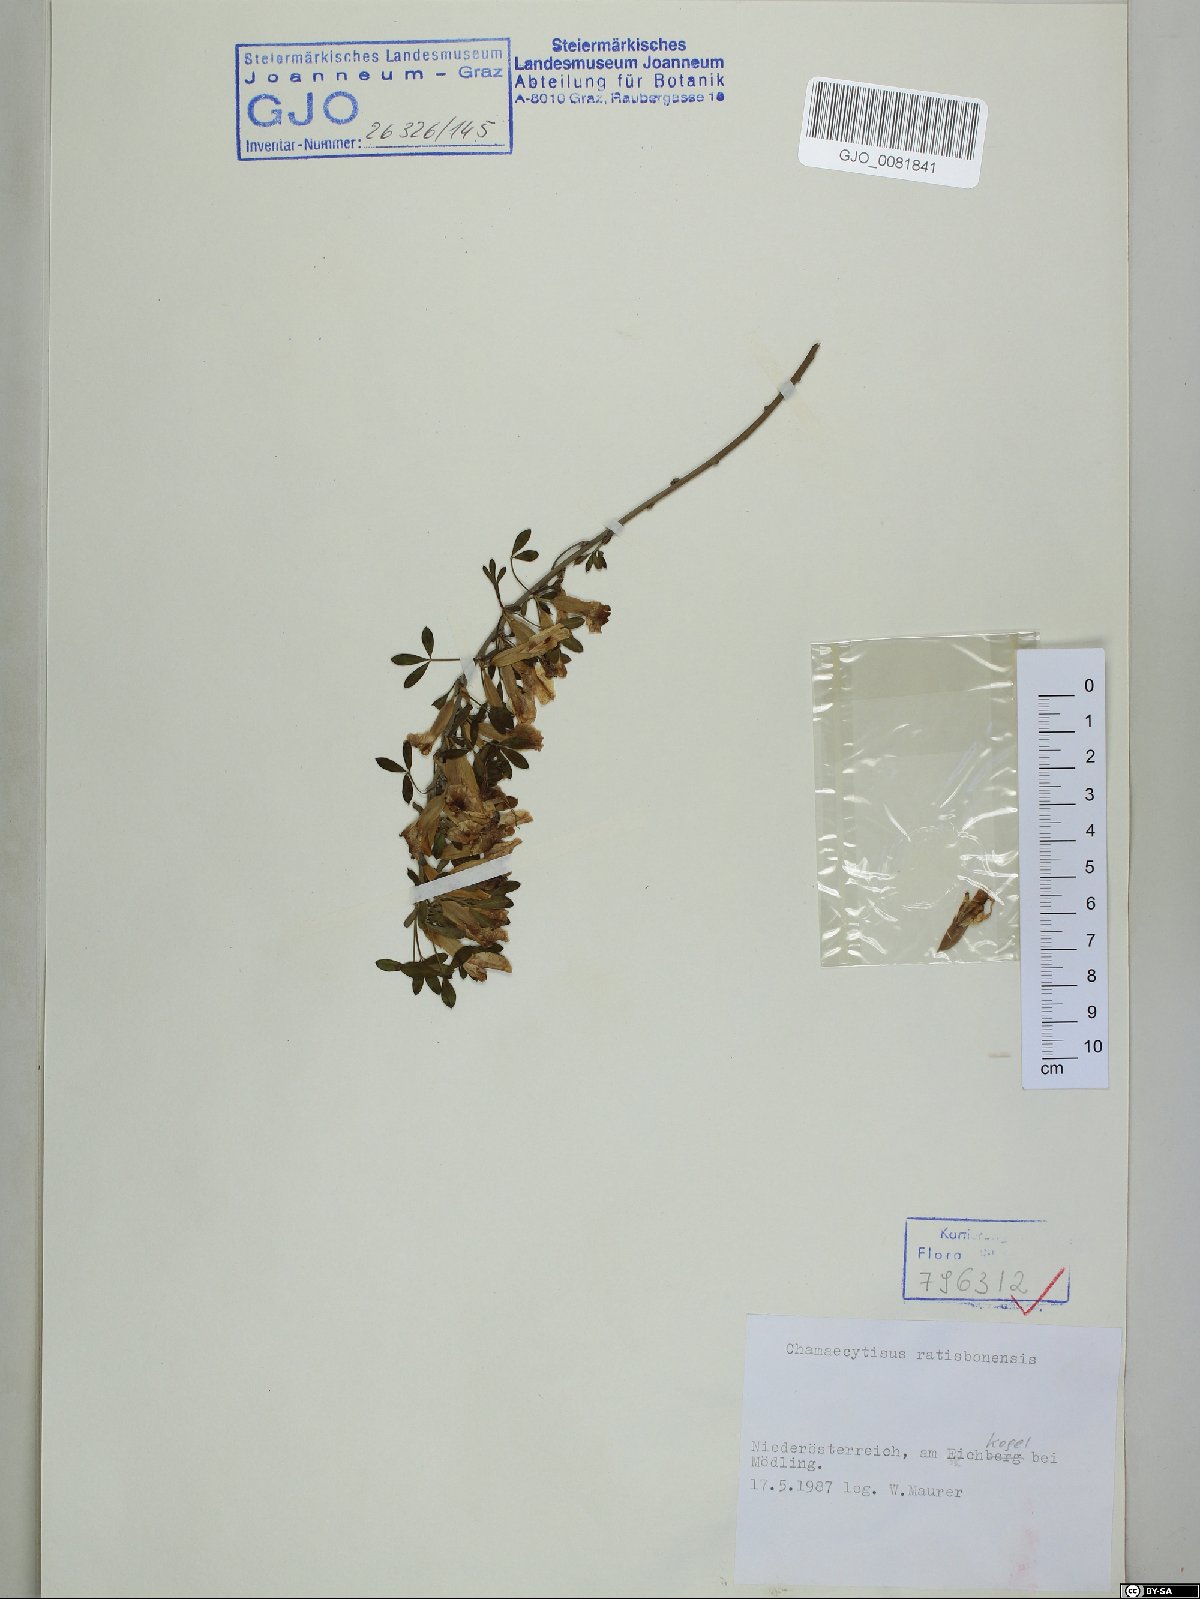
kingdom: Plantae
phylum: Tracheophyta
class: Magnoliopsida
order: Fabales
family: Fabaceae
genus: Chamaecytisus
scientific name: Chamaecytisus ratisbonensis
